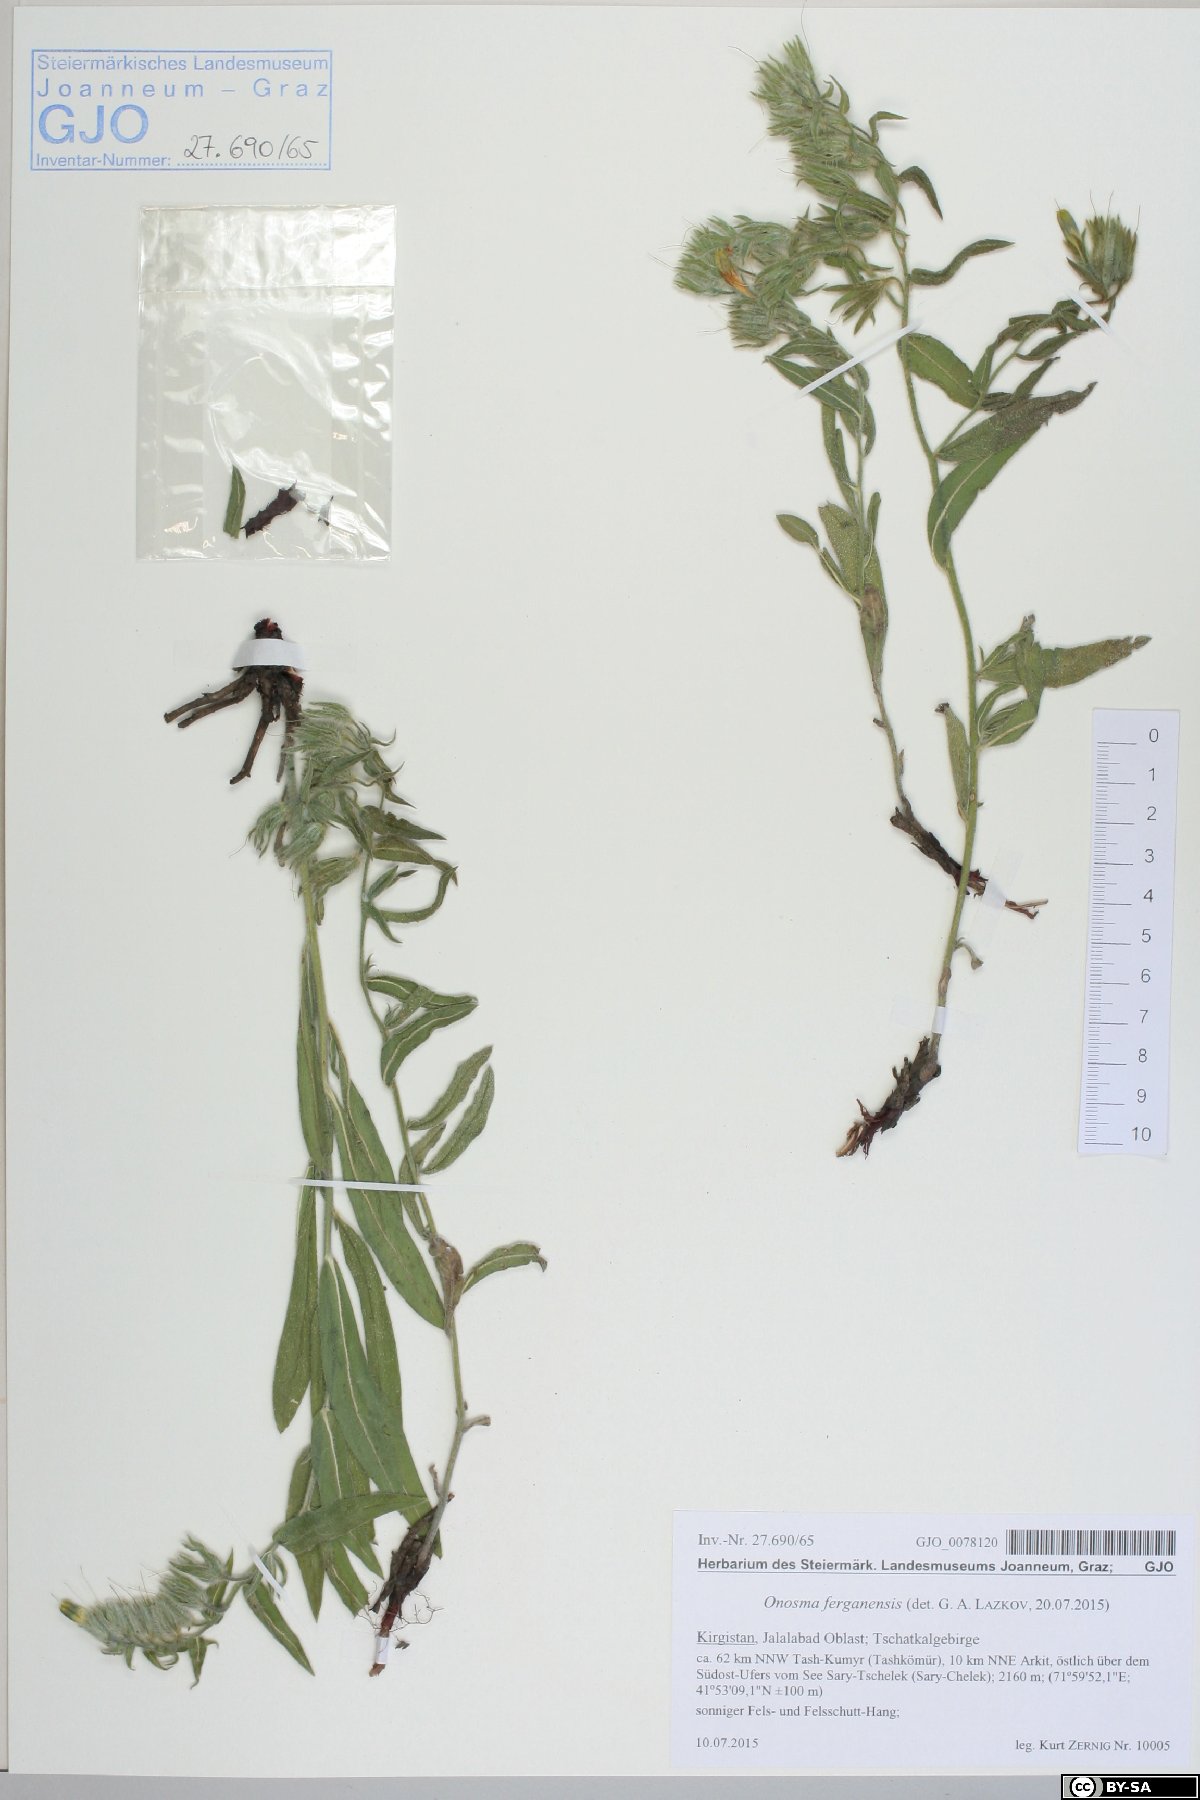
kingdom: Plantae
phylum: Tracheophyta
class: Magnoliopsida
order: Boraginales
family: Boraginaceae
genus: Onosma
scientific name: Onosma ferganensis
